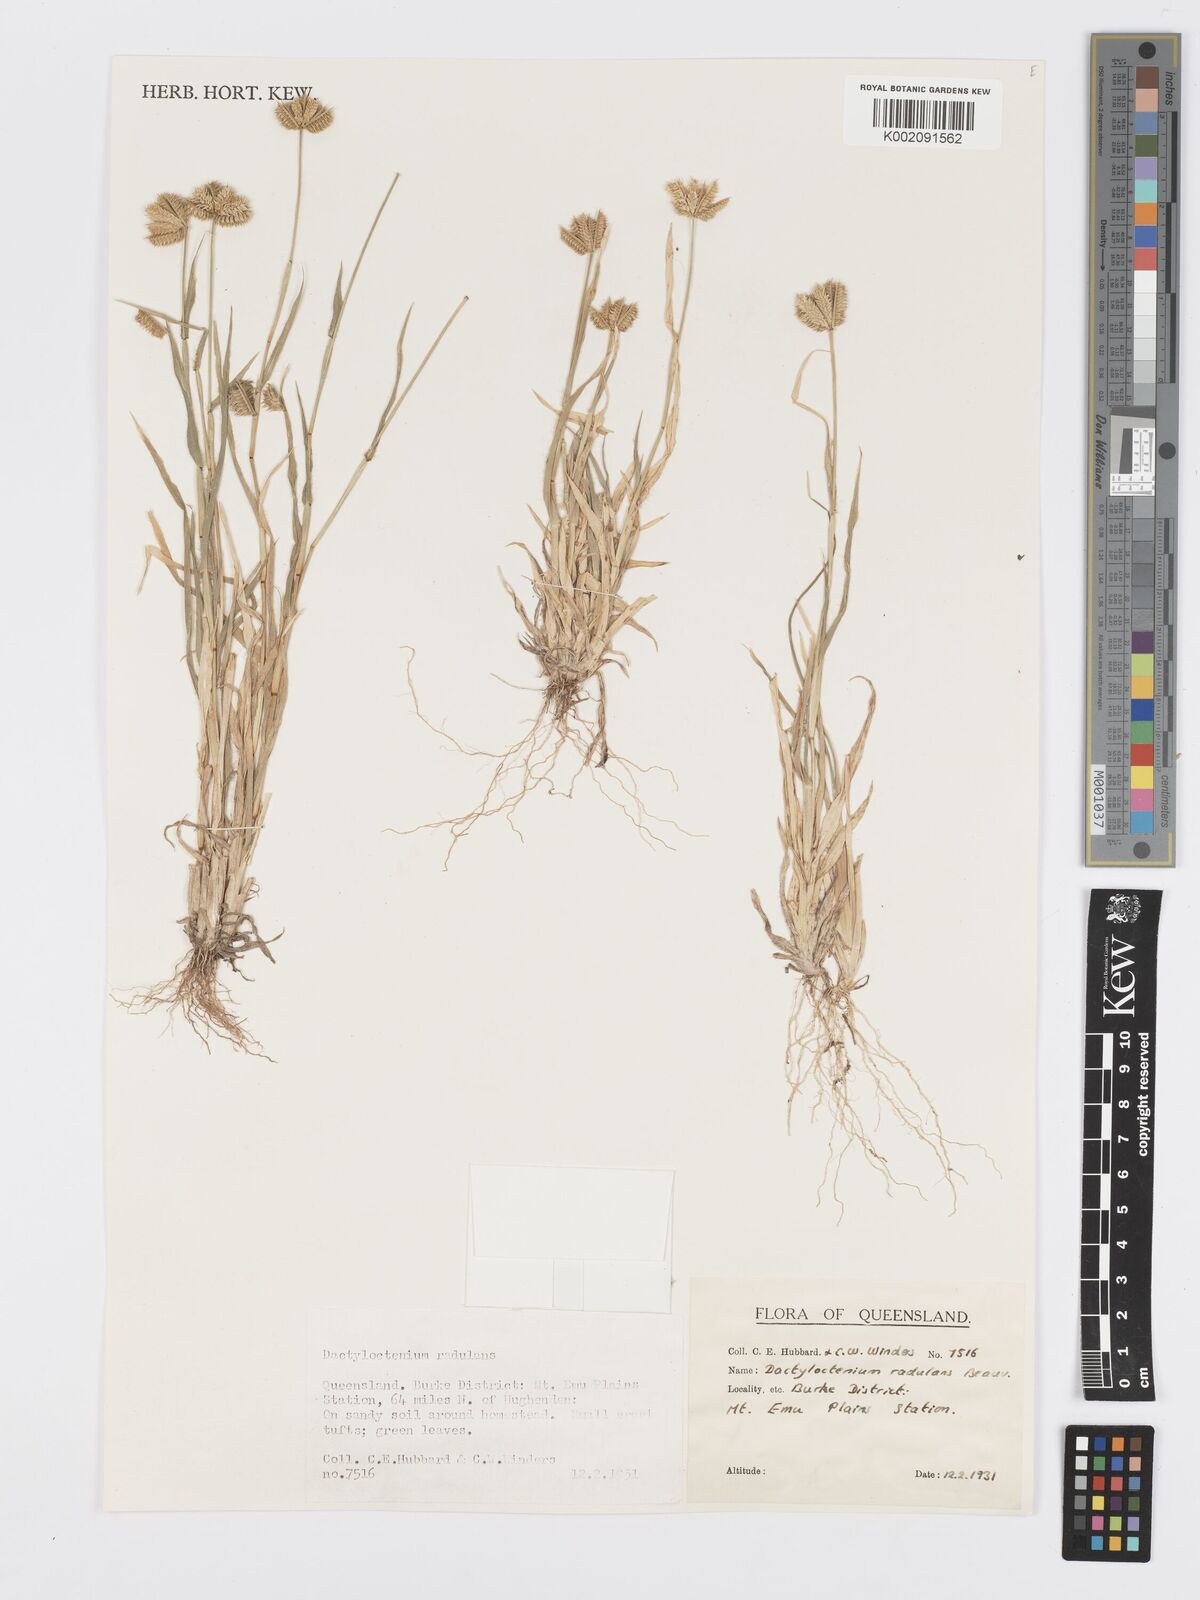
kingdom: Plantae
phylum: Tracheophyta
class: Liliopsida
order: Poales
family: Poaceae
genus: Dactyloctenium
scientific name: Dactyloctenium radulans
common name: Button-grass
